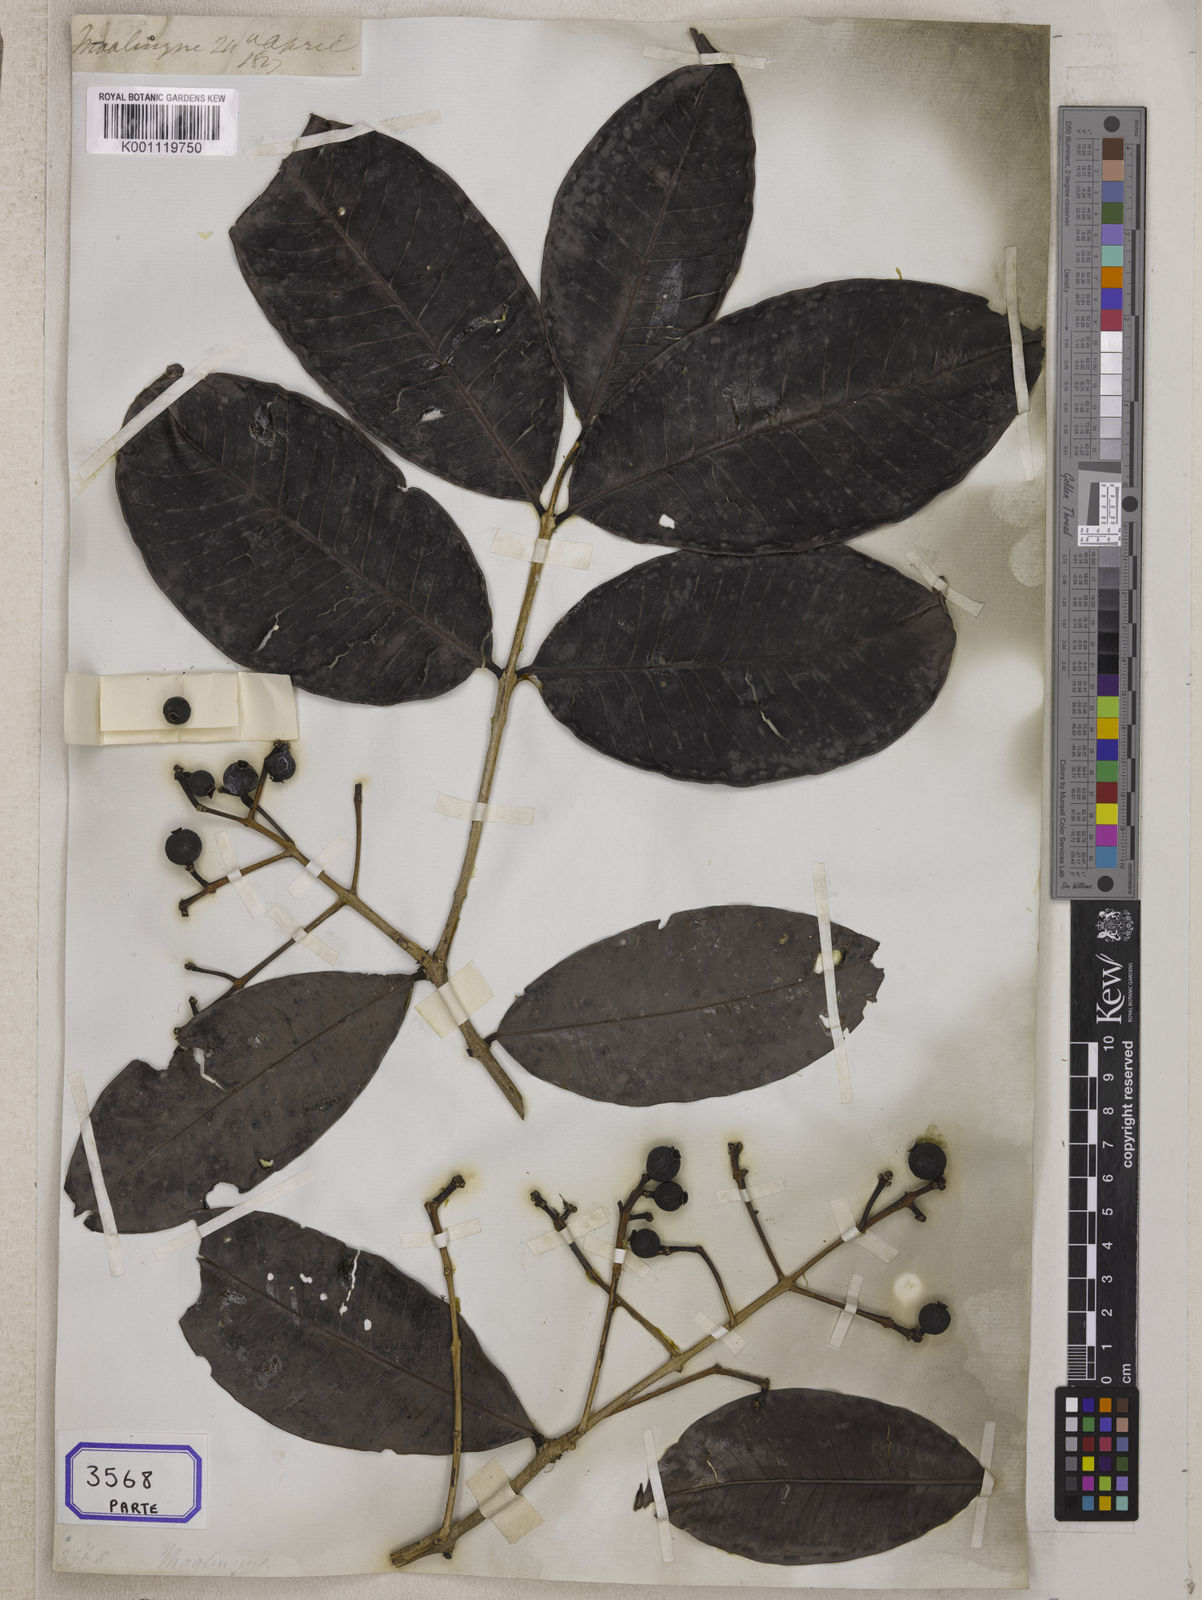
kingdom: Plantae
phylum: Tracheophyta
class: Magnoliopsida
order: Myrtales
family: Myrtaceae
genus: Syzygium
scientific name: Syzygium
